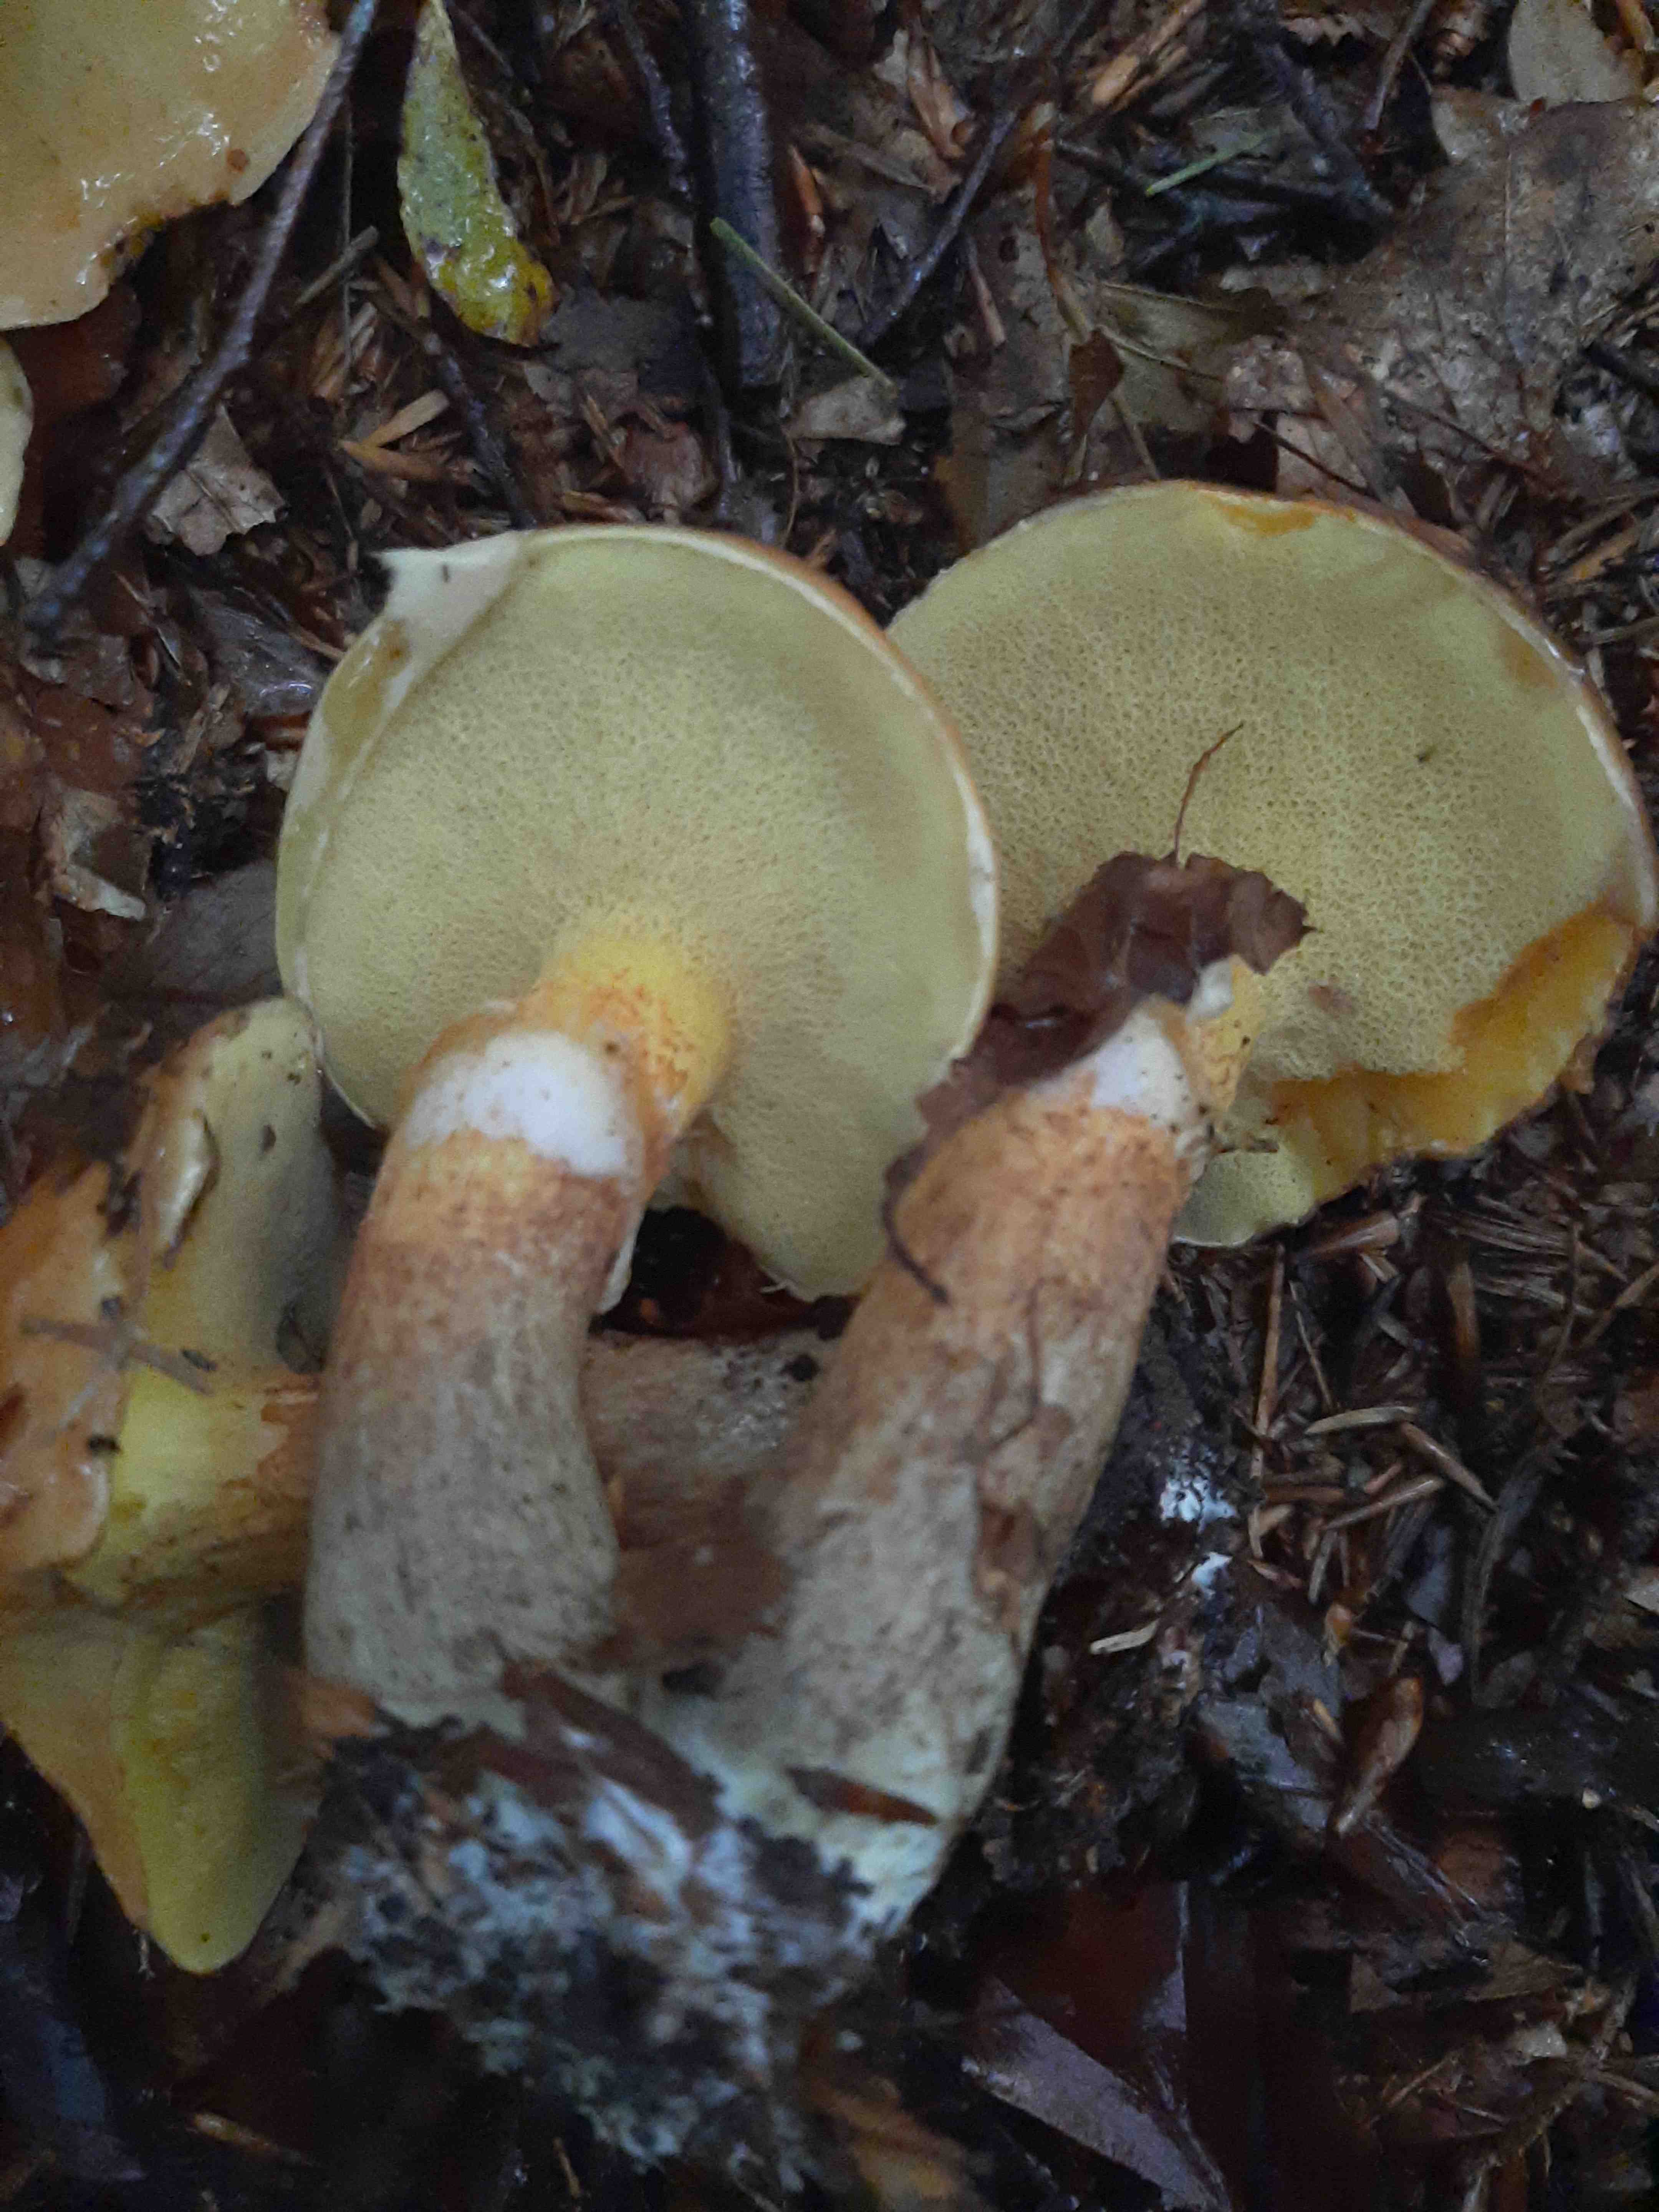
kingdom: Fungi
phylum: Basidiomycota
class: Agaricomycetes
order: Boletales
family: Suillaceae
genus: Suillus
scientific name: Suillus grevillei
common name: lærke-slimrørhat
